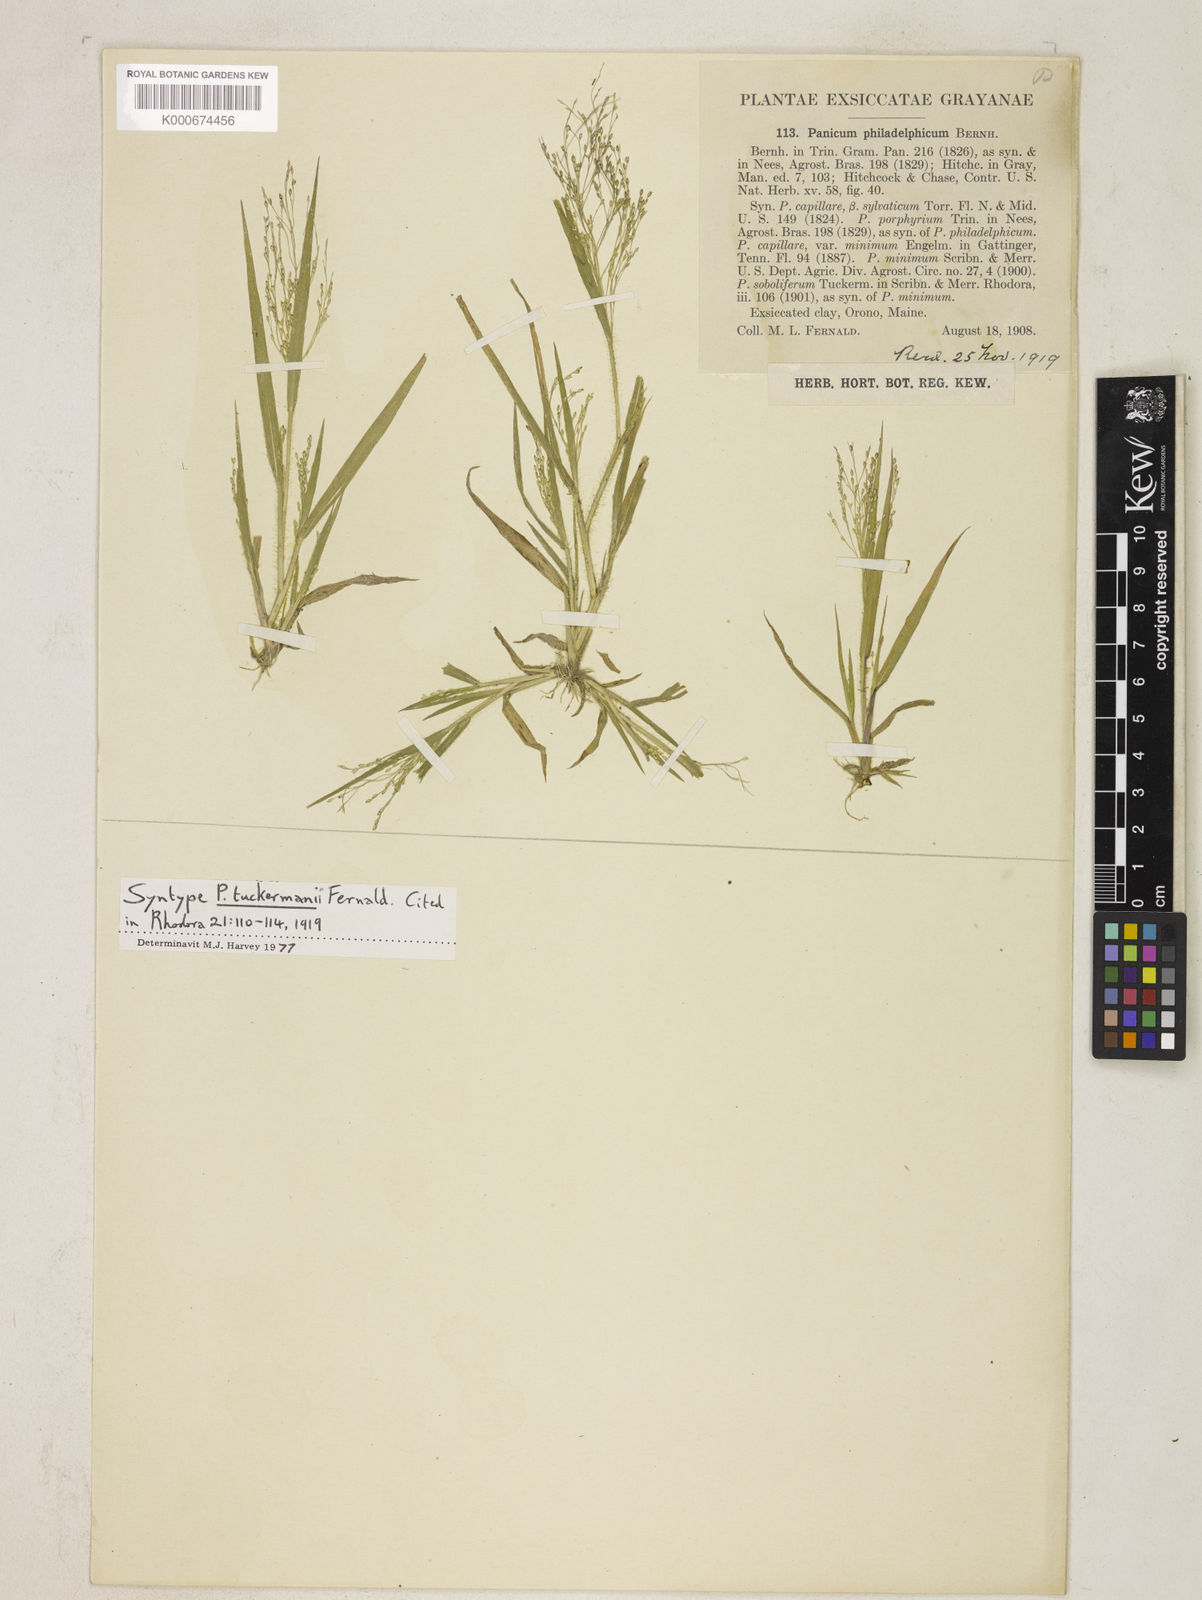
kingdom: Plantae
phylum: Tracheophyta
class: Liliopsida
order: Poales
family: Poaceae
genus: Panicum
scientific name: Panicum philadelphicum
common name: Philadelphia witchgrass
